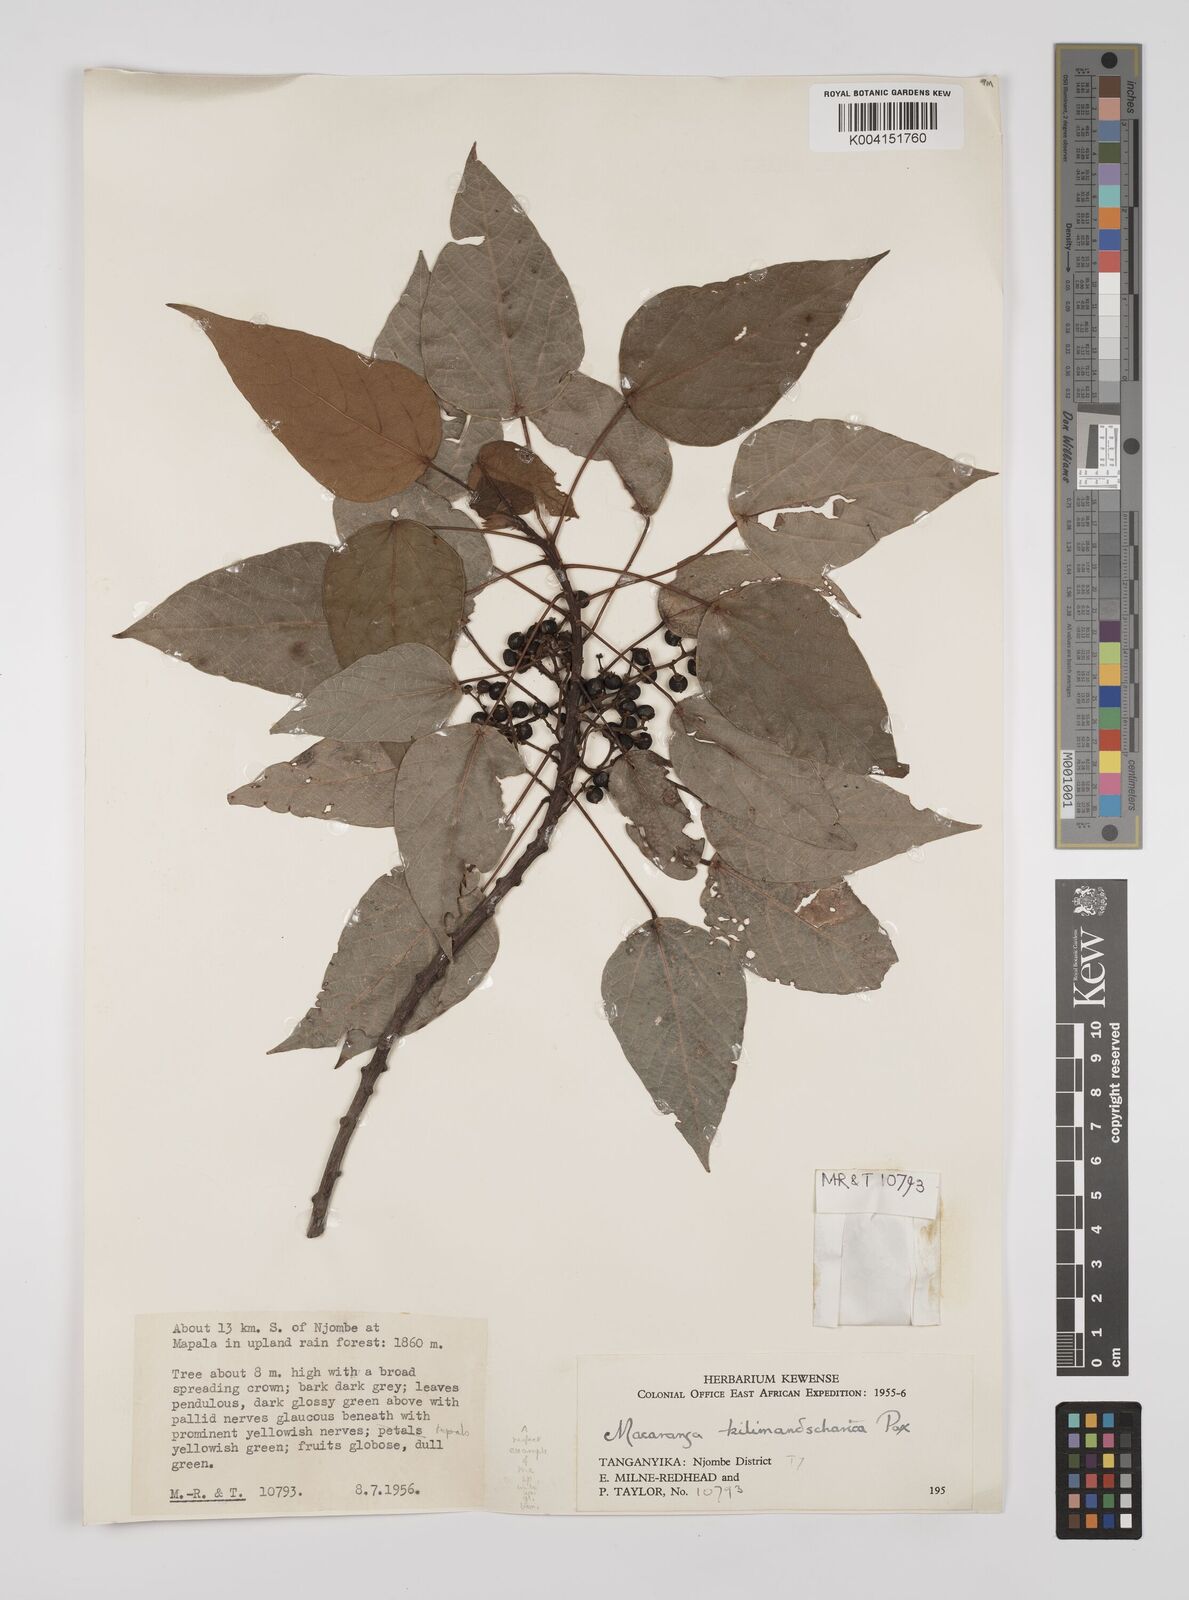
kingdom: Plantae
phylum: Tracheophyta
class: Magnoliopsida
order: Malpighiales
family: Euphorbiaceae
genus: Macaranga
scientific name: Macaranga kilimandscharica
